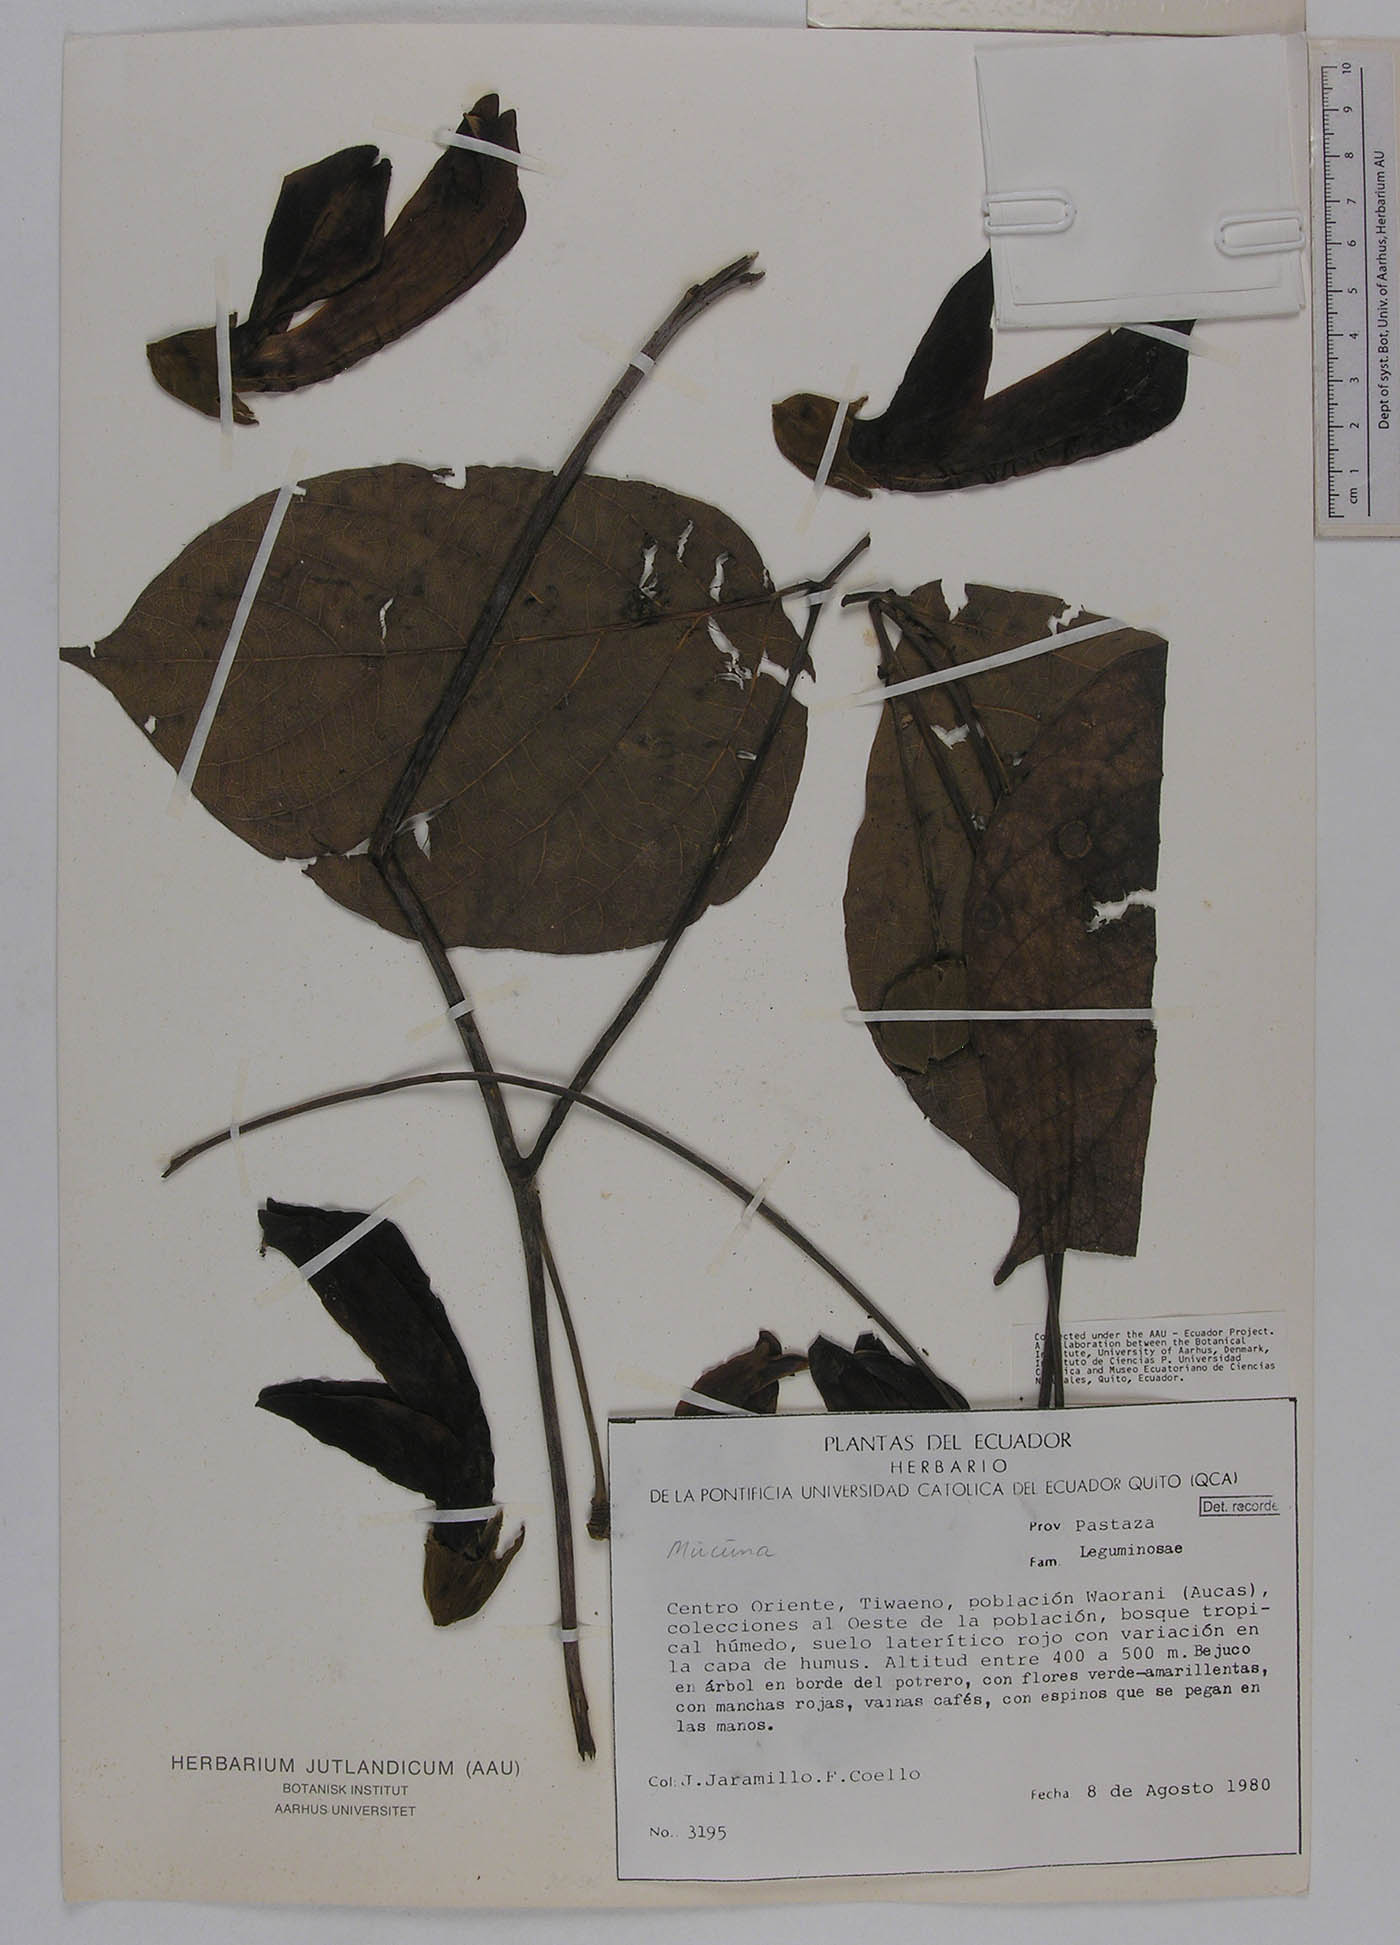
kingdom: Plantae
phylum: Tracheophyta
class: Magnoliopsida
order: Fabales
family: Fabaceae
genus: Mucuna
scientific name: Mucuna elliptica
